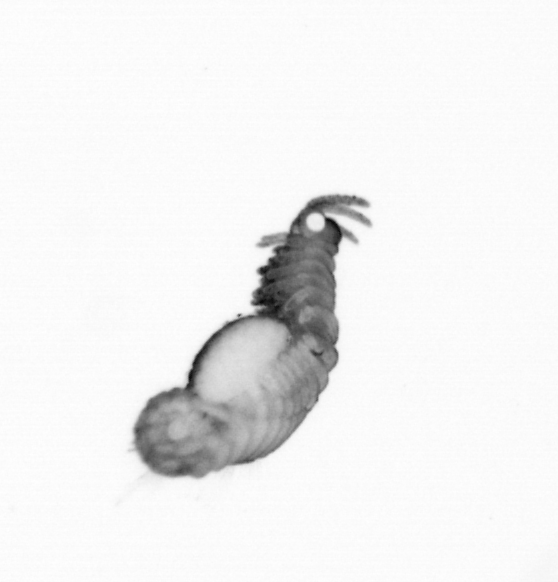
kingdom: Animalia
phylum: Annelida
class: Polychaeta
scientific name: Polychaeta
